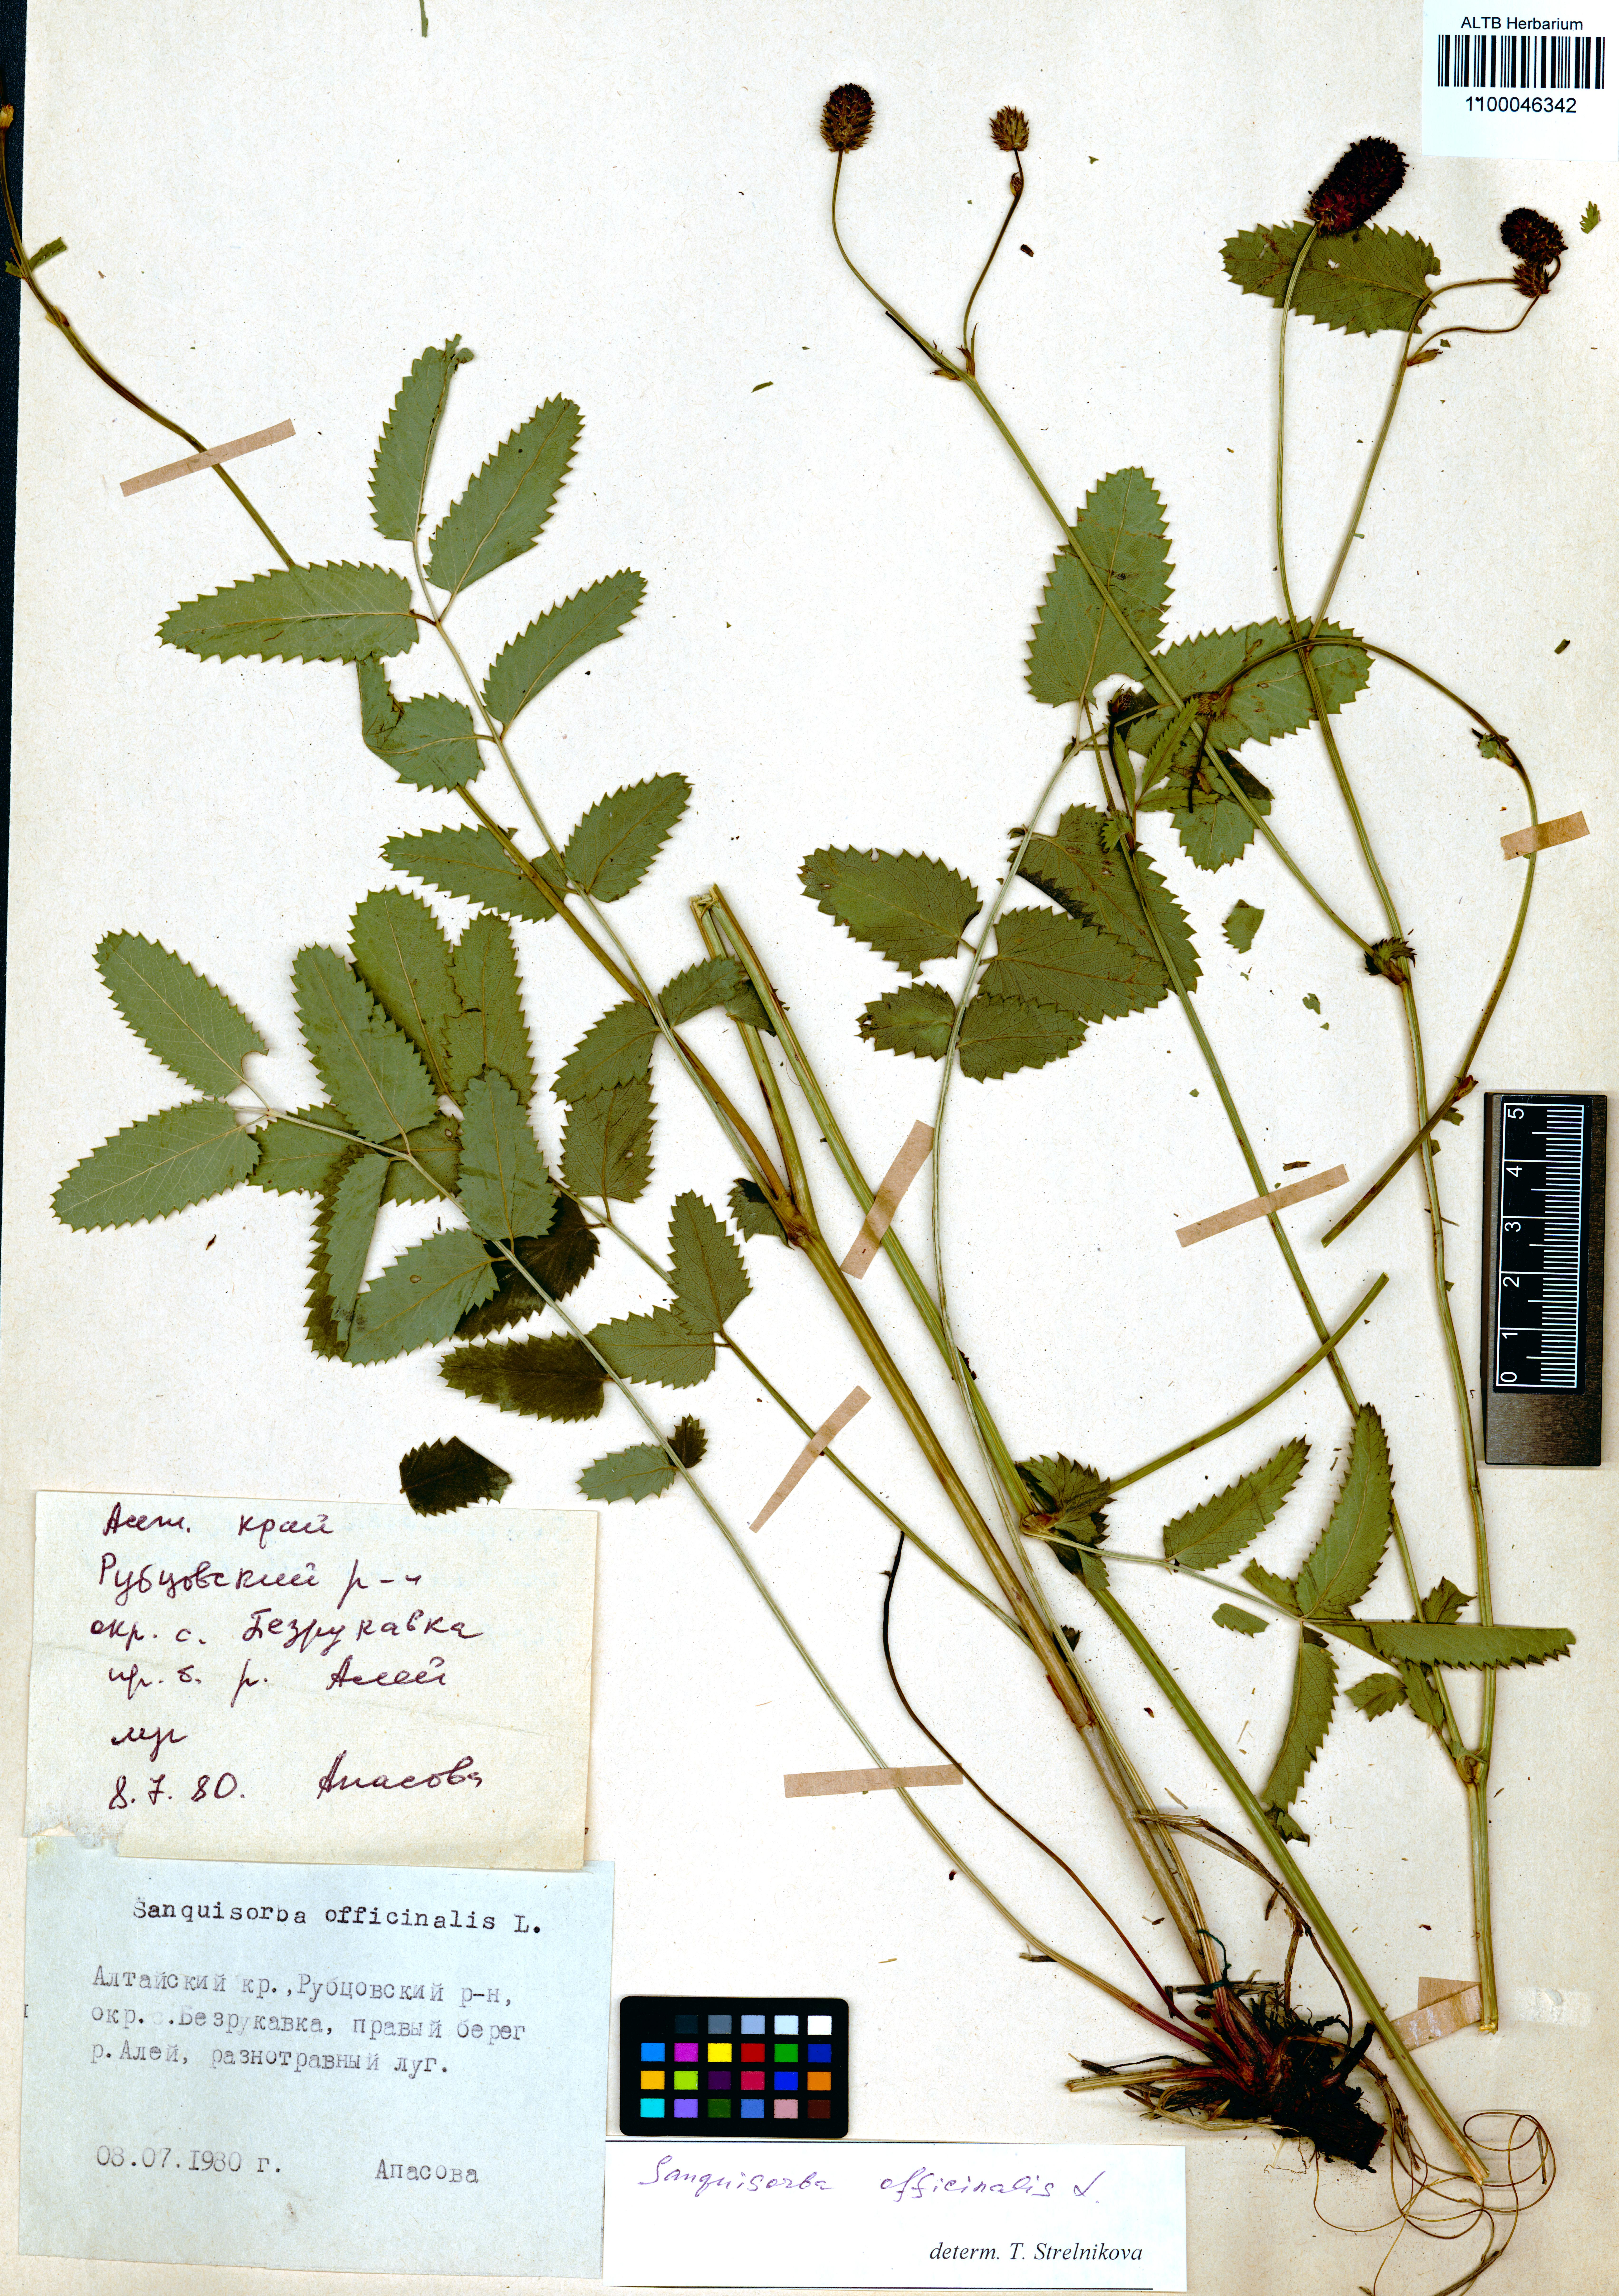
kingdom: Plantae
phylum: Tracheophyta
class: Magnoliopsida
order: Rosales
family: Rosaceae
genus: Sanguisorba
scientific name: Sanguisorba officinalis
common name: Great burnet
